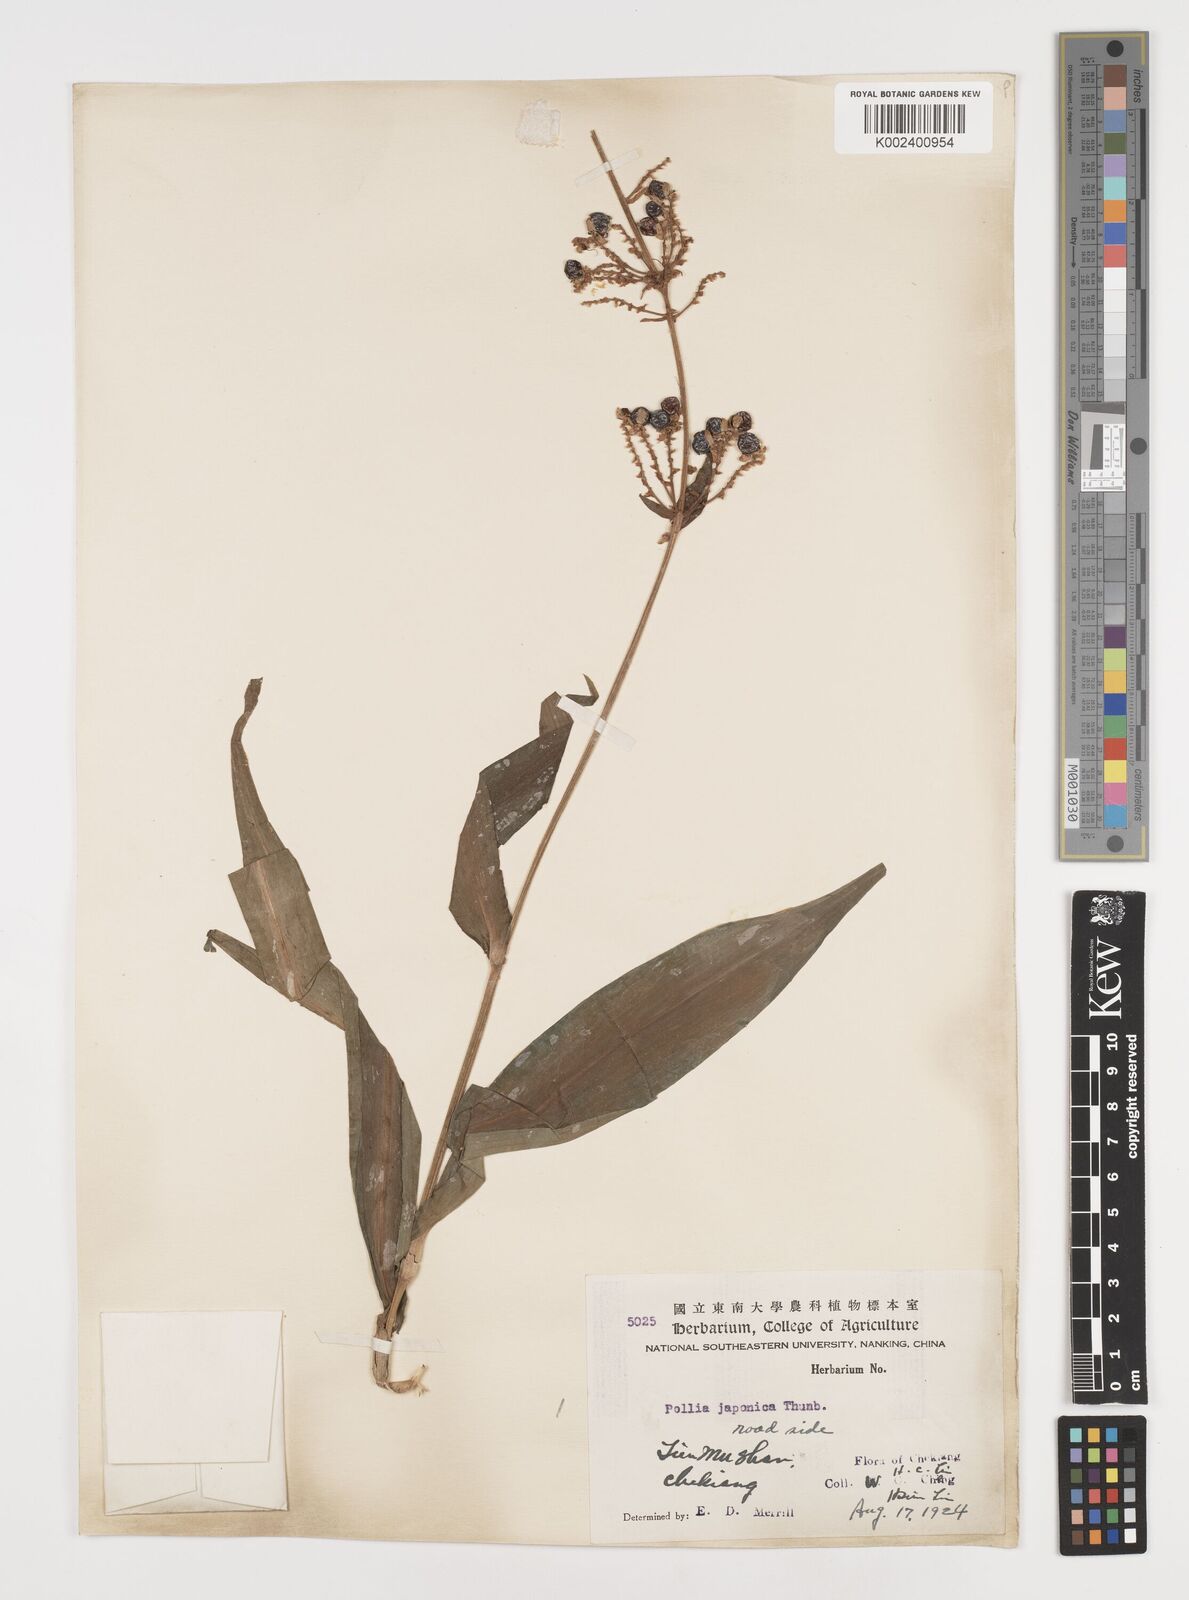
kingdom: Plantae
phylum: Tracheophyta
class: Liliopsida
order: Commelinales
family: Commelinaceae
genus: Pollia
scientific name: Pollia japonica
